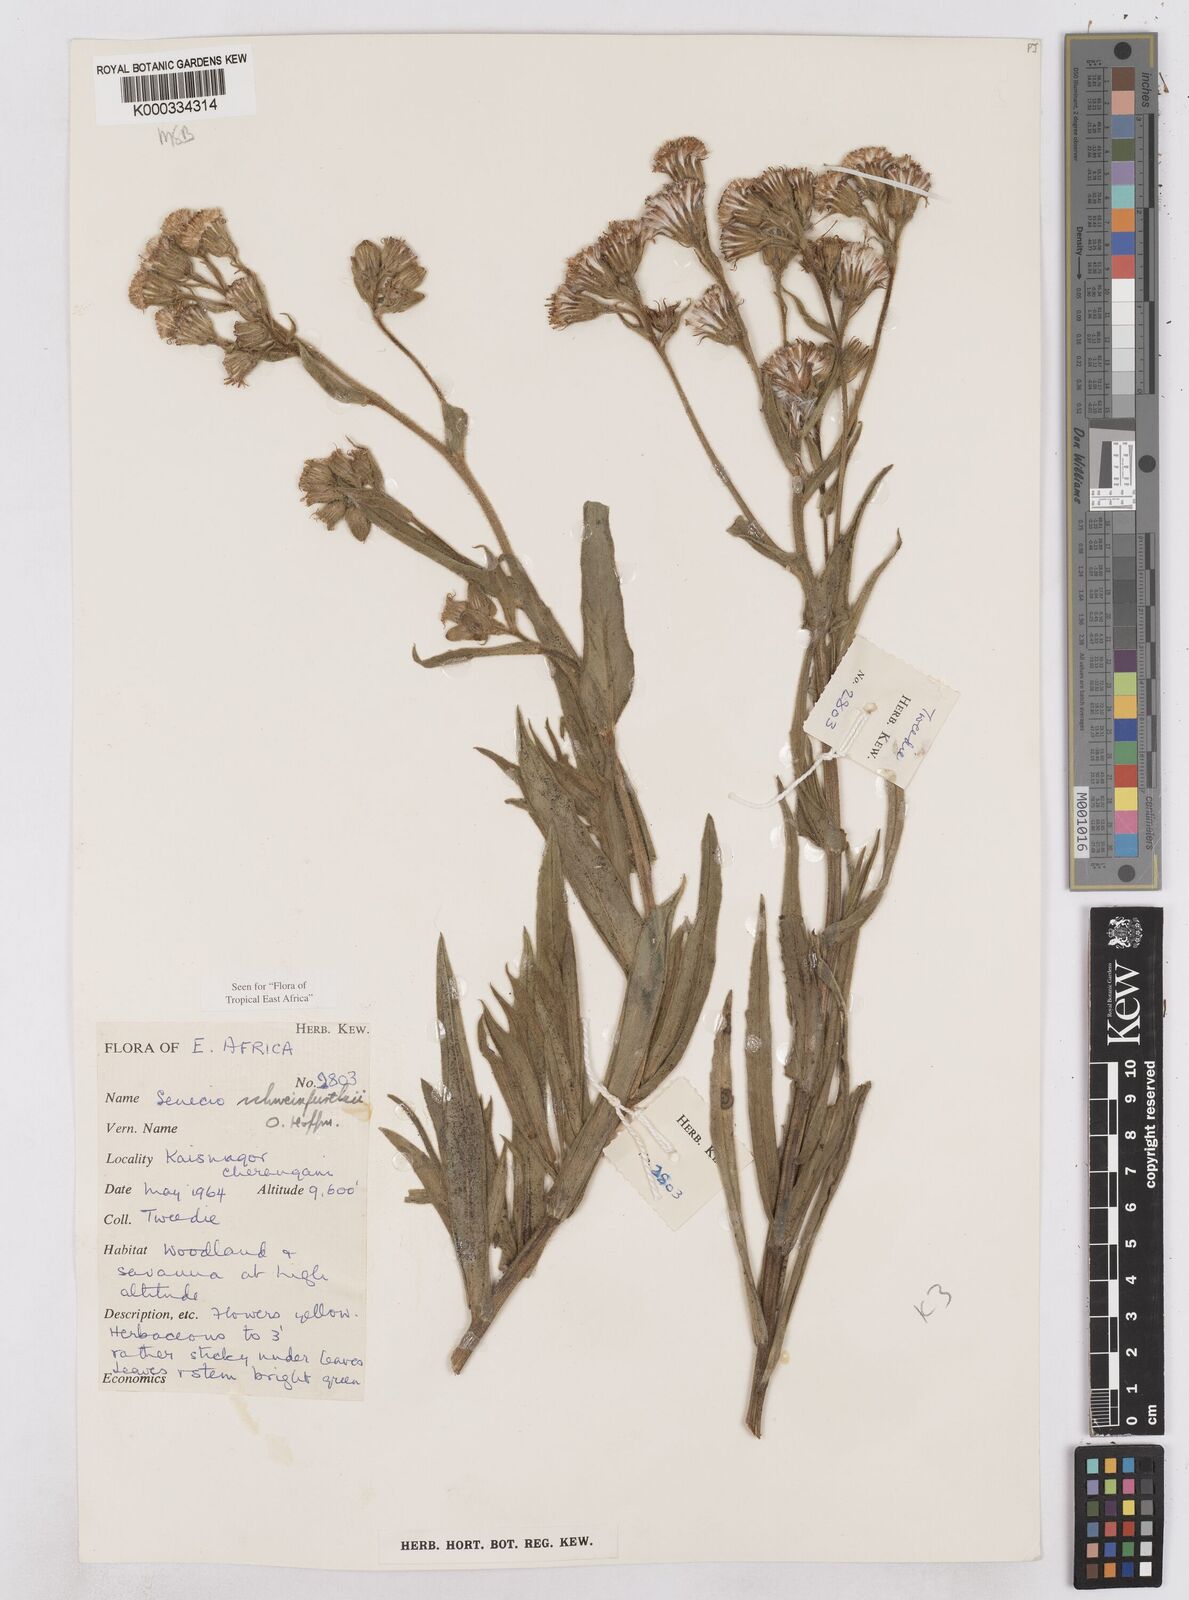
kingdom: Plantae
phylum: Tracheophyta
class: Magnoliopsida
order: Asterales
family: Asteraceae
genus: Senecio
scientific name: Senecio schweinfurthii
